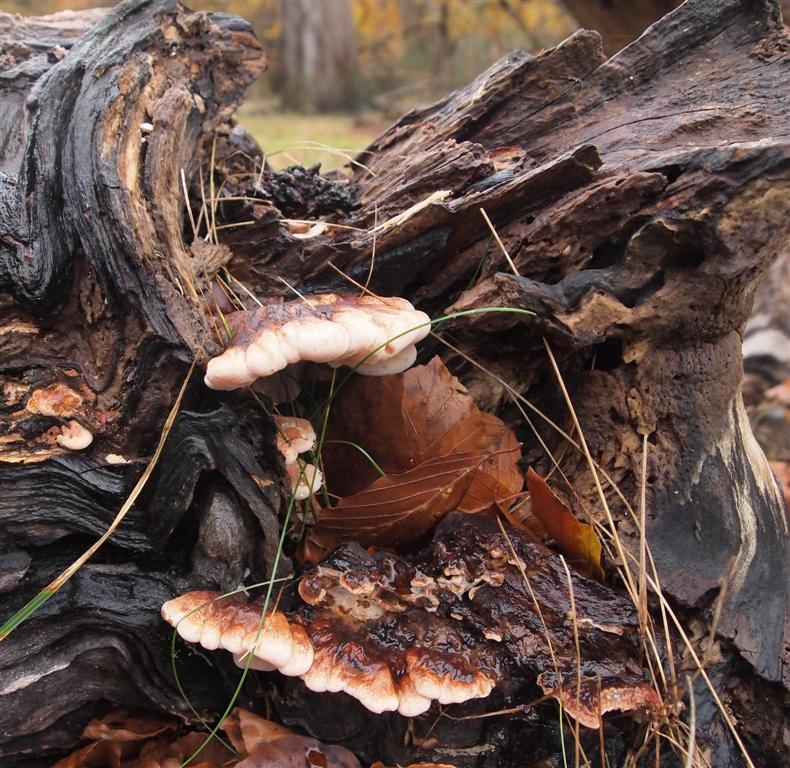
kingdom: Fungi
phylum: Basidiomycota
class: Agaricomycetes
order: Polyporales
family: Ischnodermataceae
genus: Ischnoderma
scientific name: Ischnoderma resinosum
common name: løv-tjæreporesvamp
